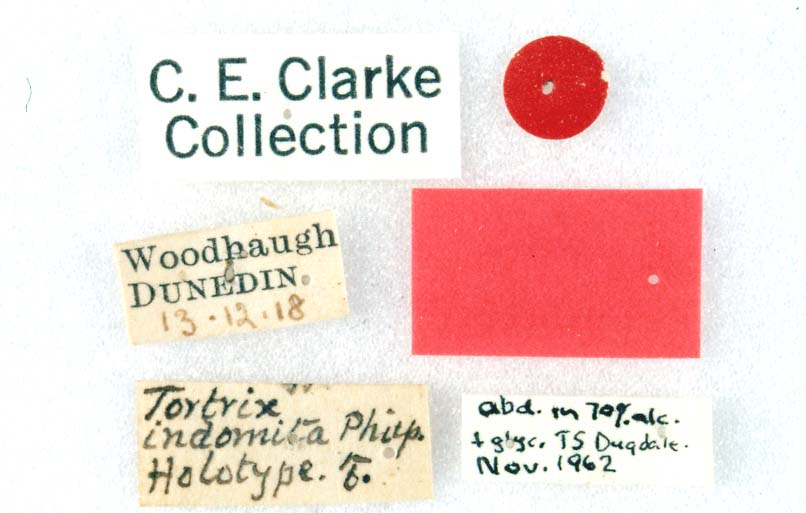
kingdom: Animalia
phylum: Arthropoda
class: Insecta
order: Lepidoptera
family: Tortricidae
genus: Harmologa
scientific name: Harmologa oblongana
